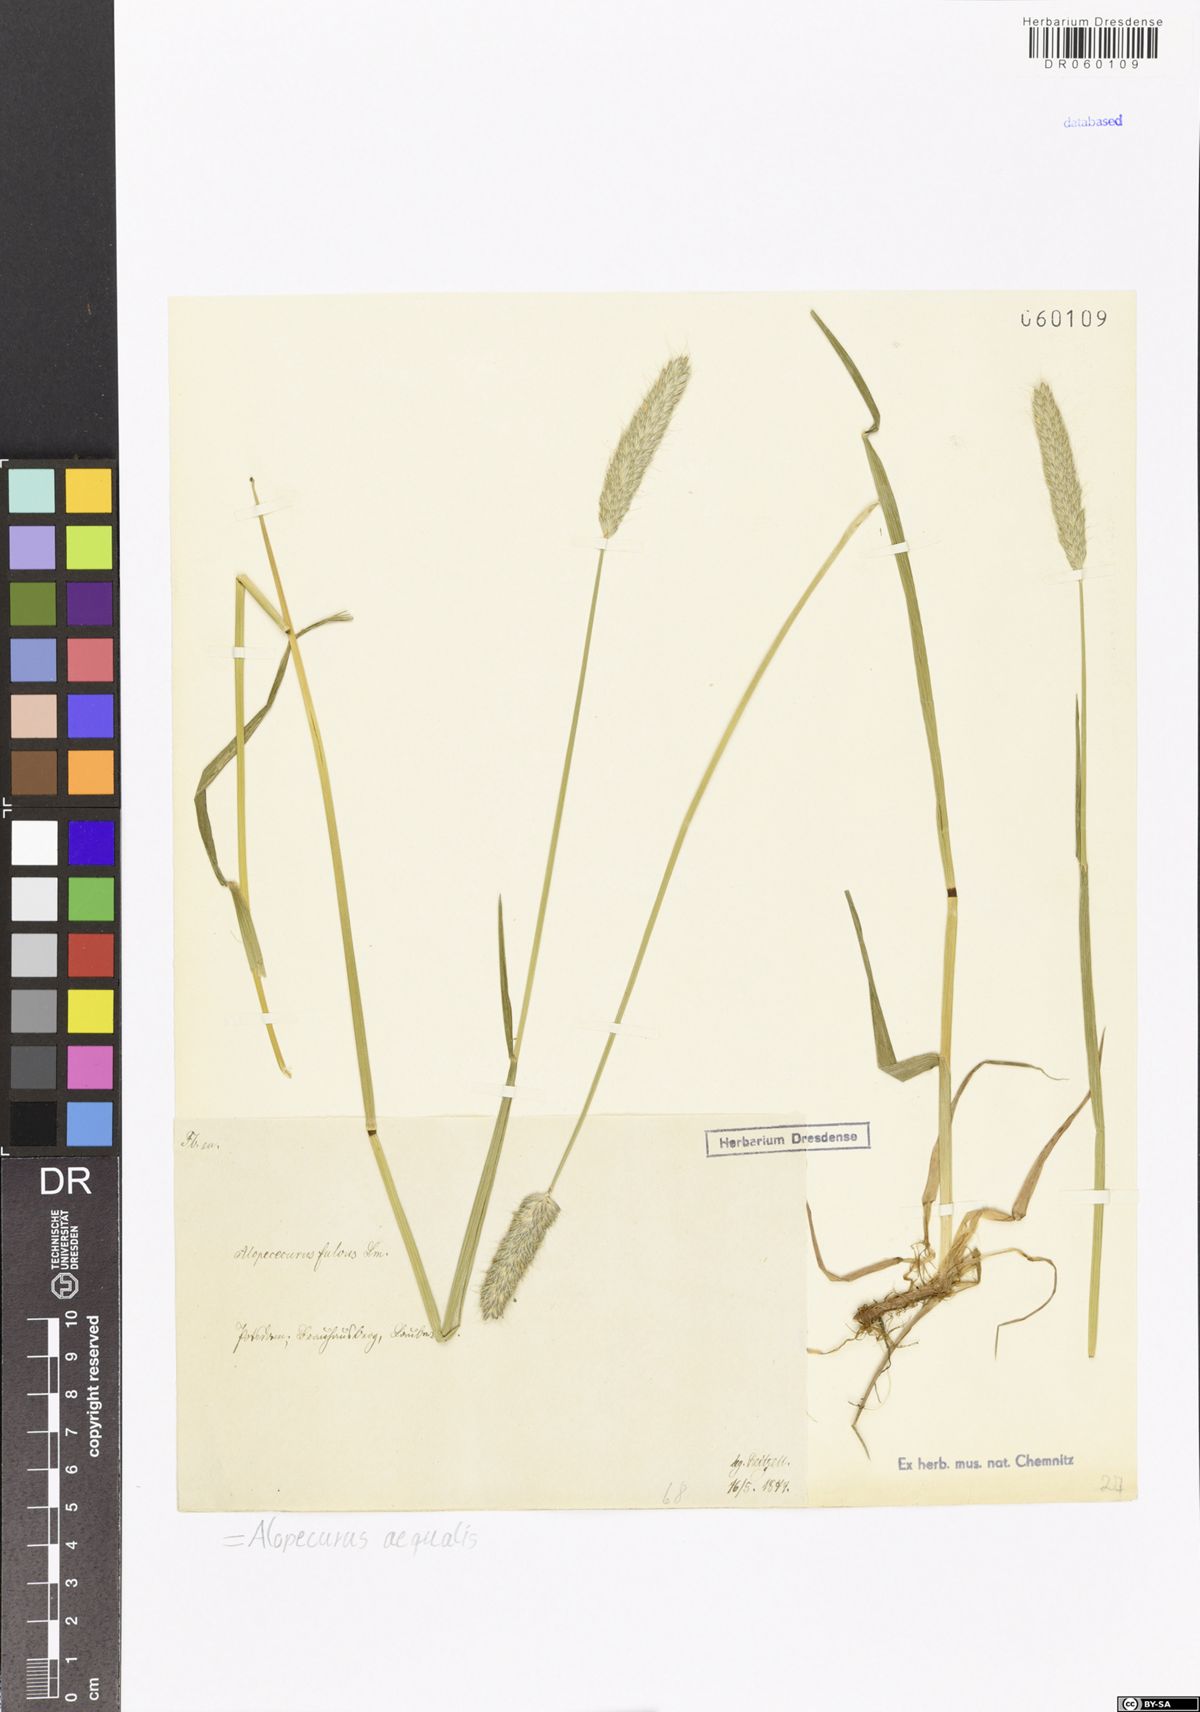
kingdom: Plantae
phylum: Tracheophyta
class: Liliopsida
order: Poales
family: Poaceae
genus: Alopecurus
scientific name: Alopecurus aequalis
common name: Orange foxtail
